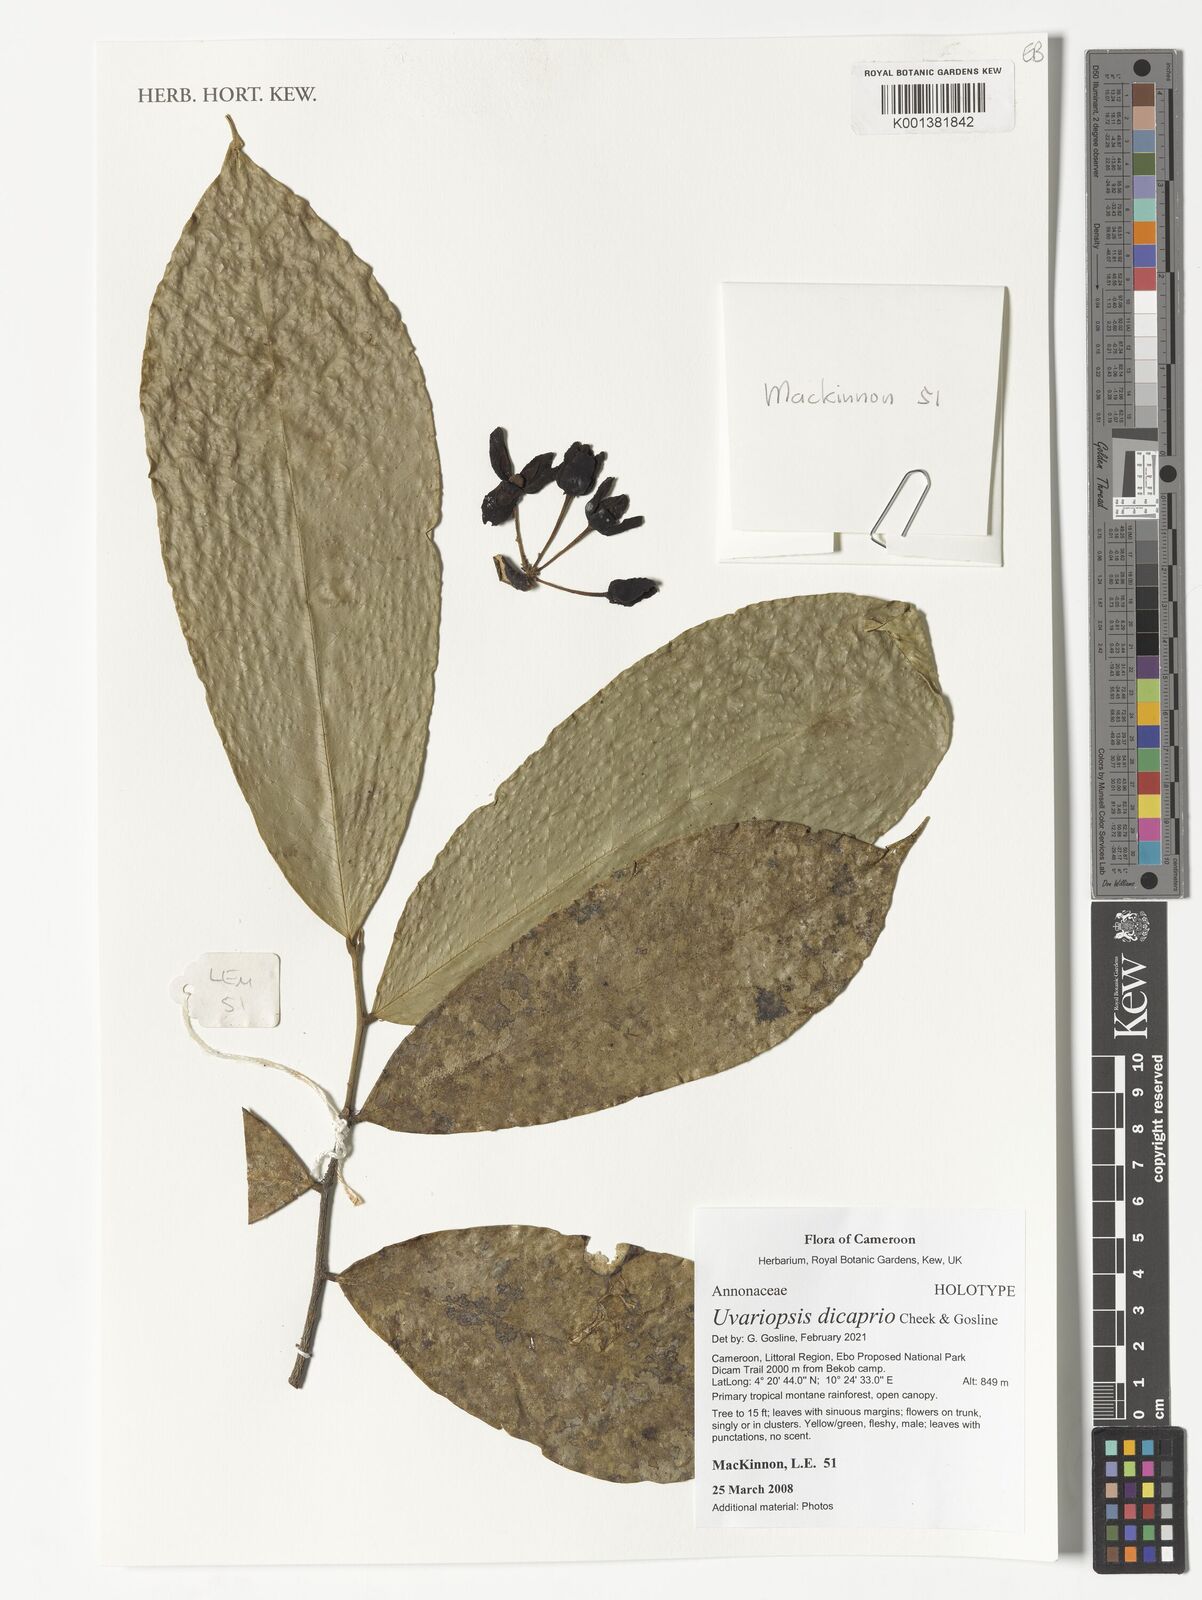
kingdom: Plantae
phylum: Tracheophyta
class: Magnoliopsida
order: Magnoliales
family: Annonaceae
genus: Uvariopsis
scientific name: Uvariopsis
